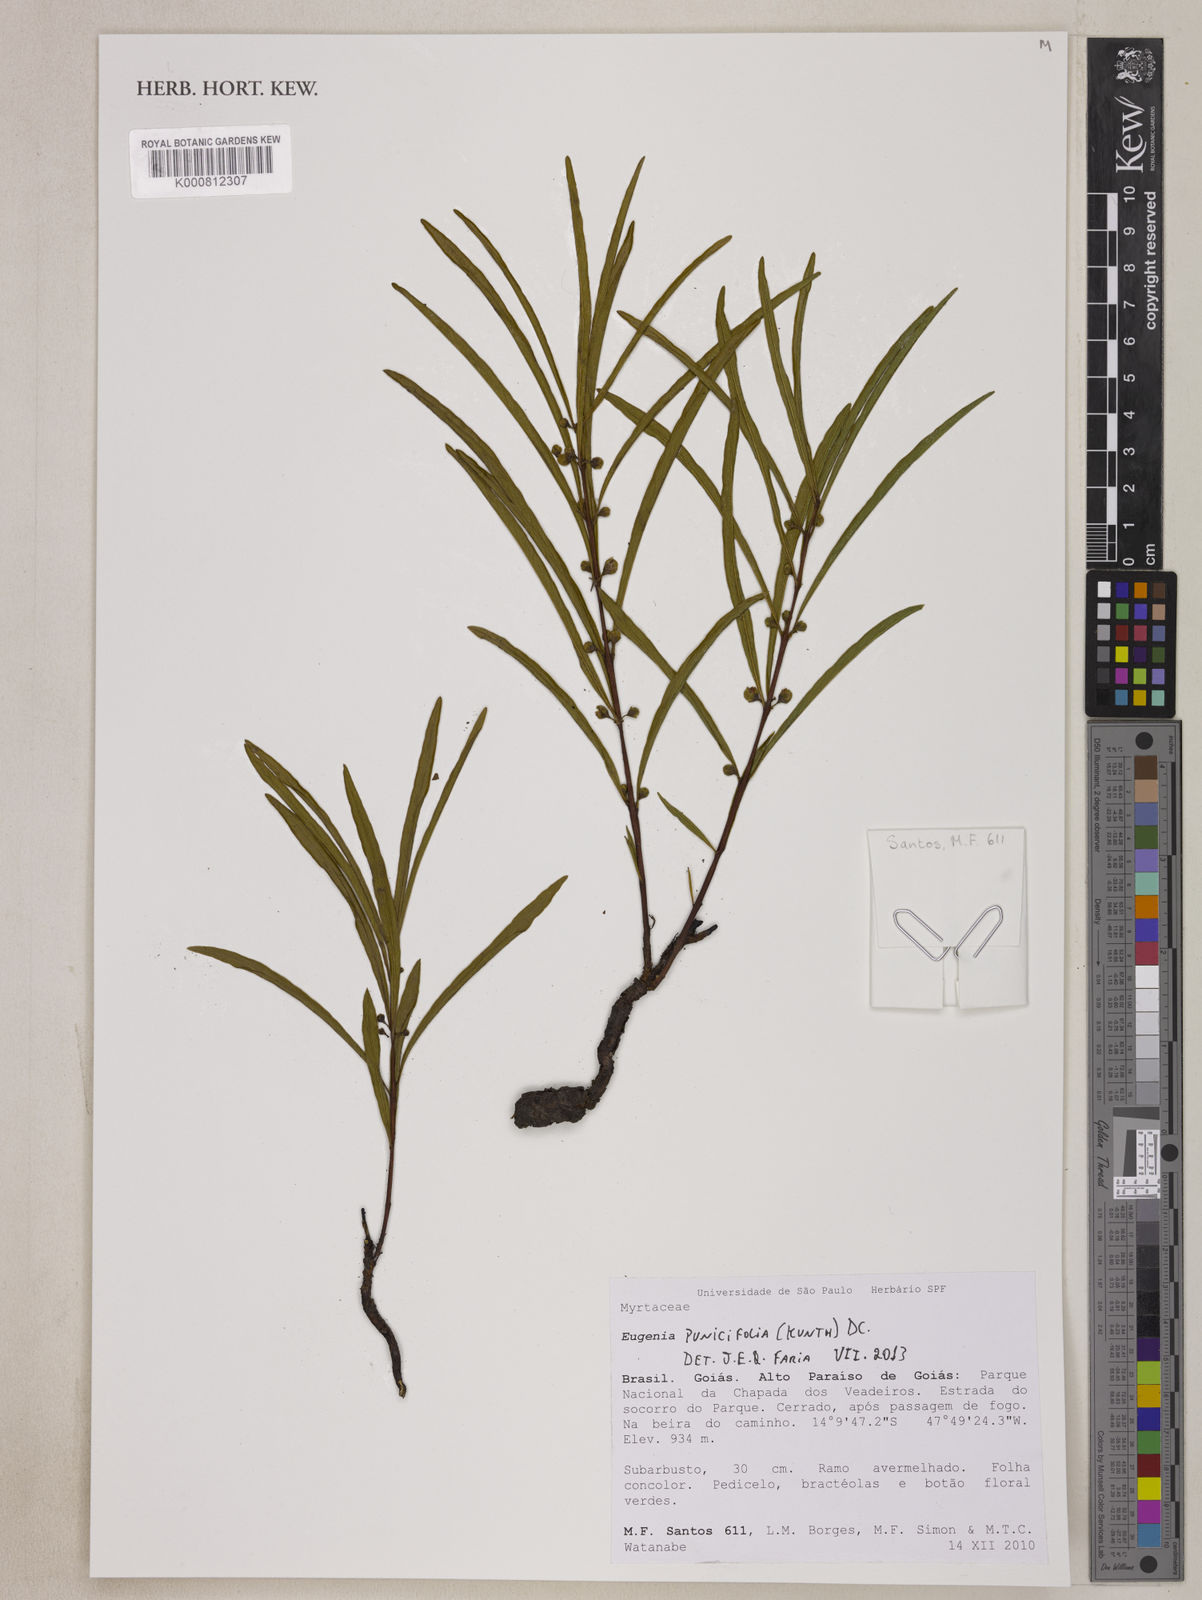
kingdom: Plantae
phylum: Tracheophyta
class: Magnoliopsida
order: Myrtales
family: Myrtaceae
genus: Eugenia
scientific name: Eugenia punicifolia
